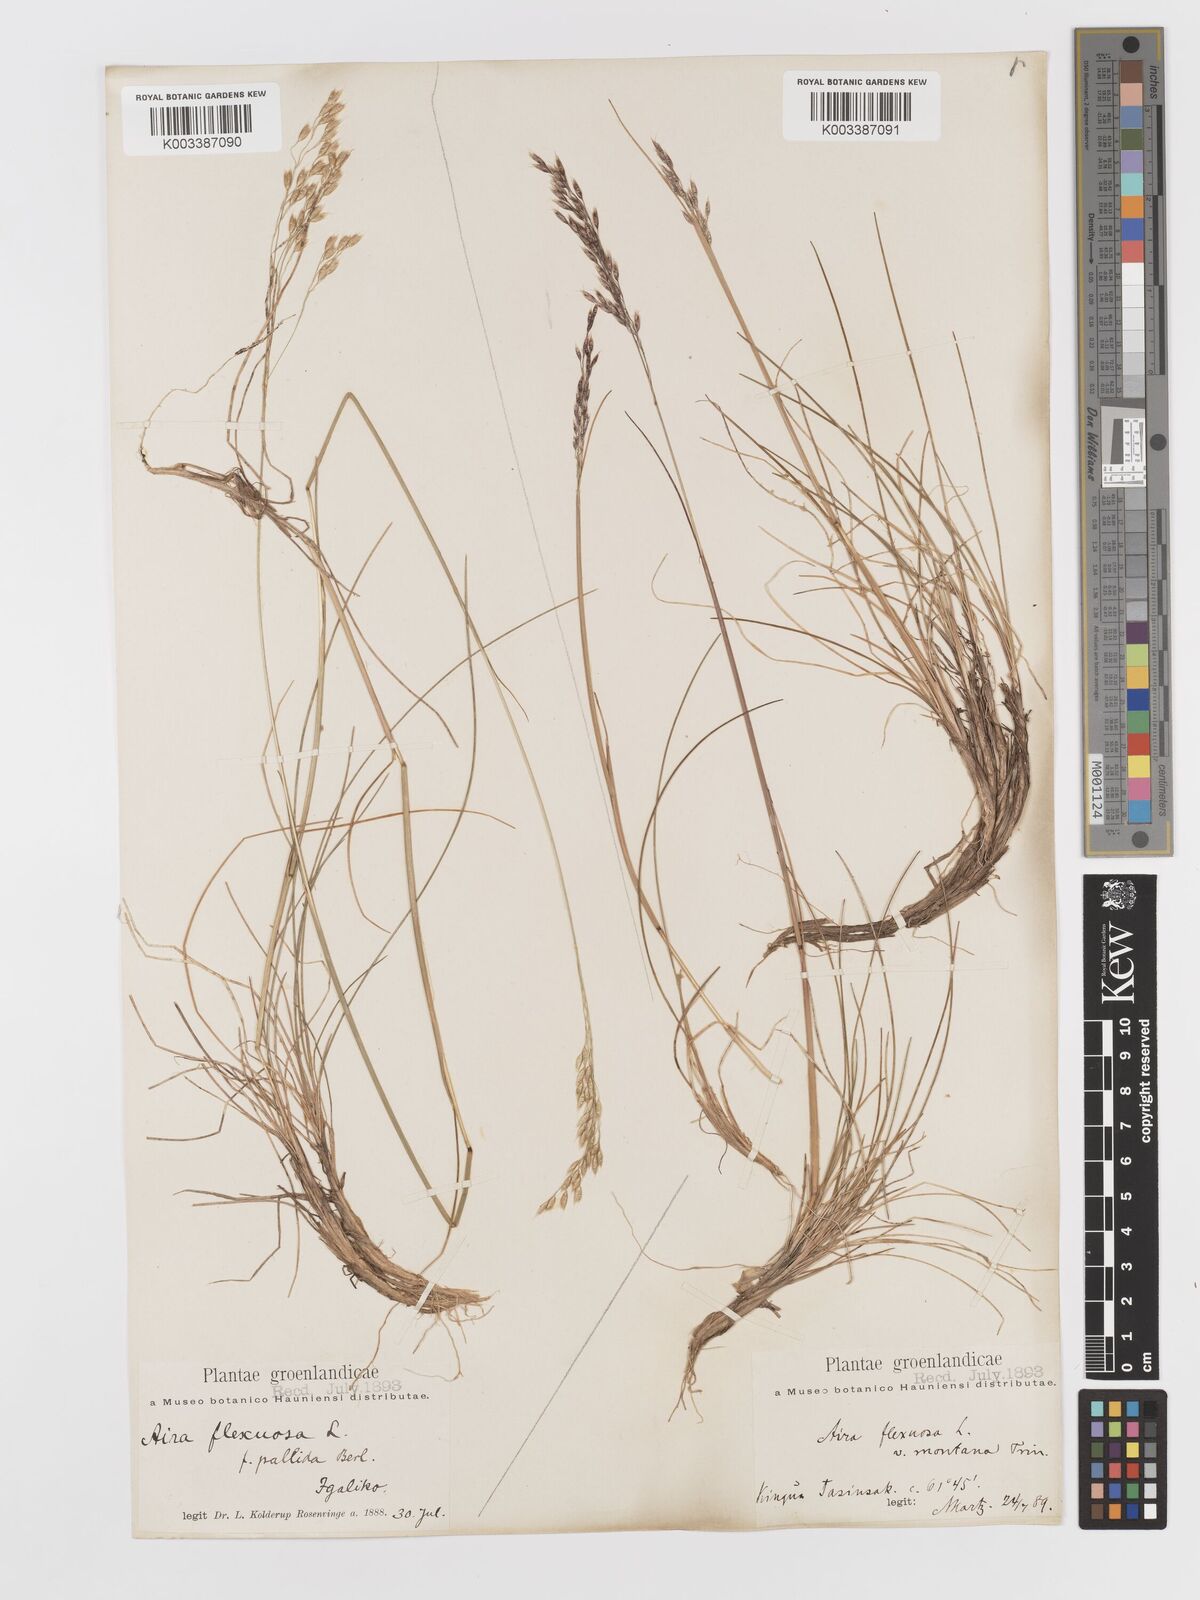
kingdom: Plantae
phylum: Tracheophyta
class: Liliopsida
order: Poales
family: Poaceae
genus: Avenella
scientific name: Avenella flexuosa
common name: Wavy hairgrass
